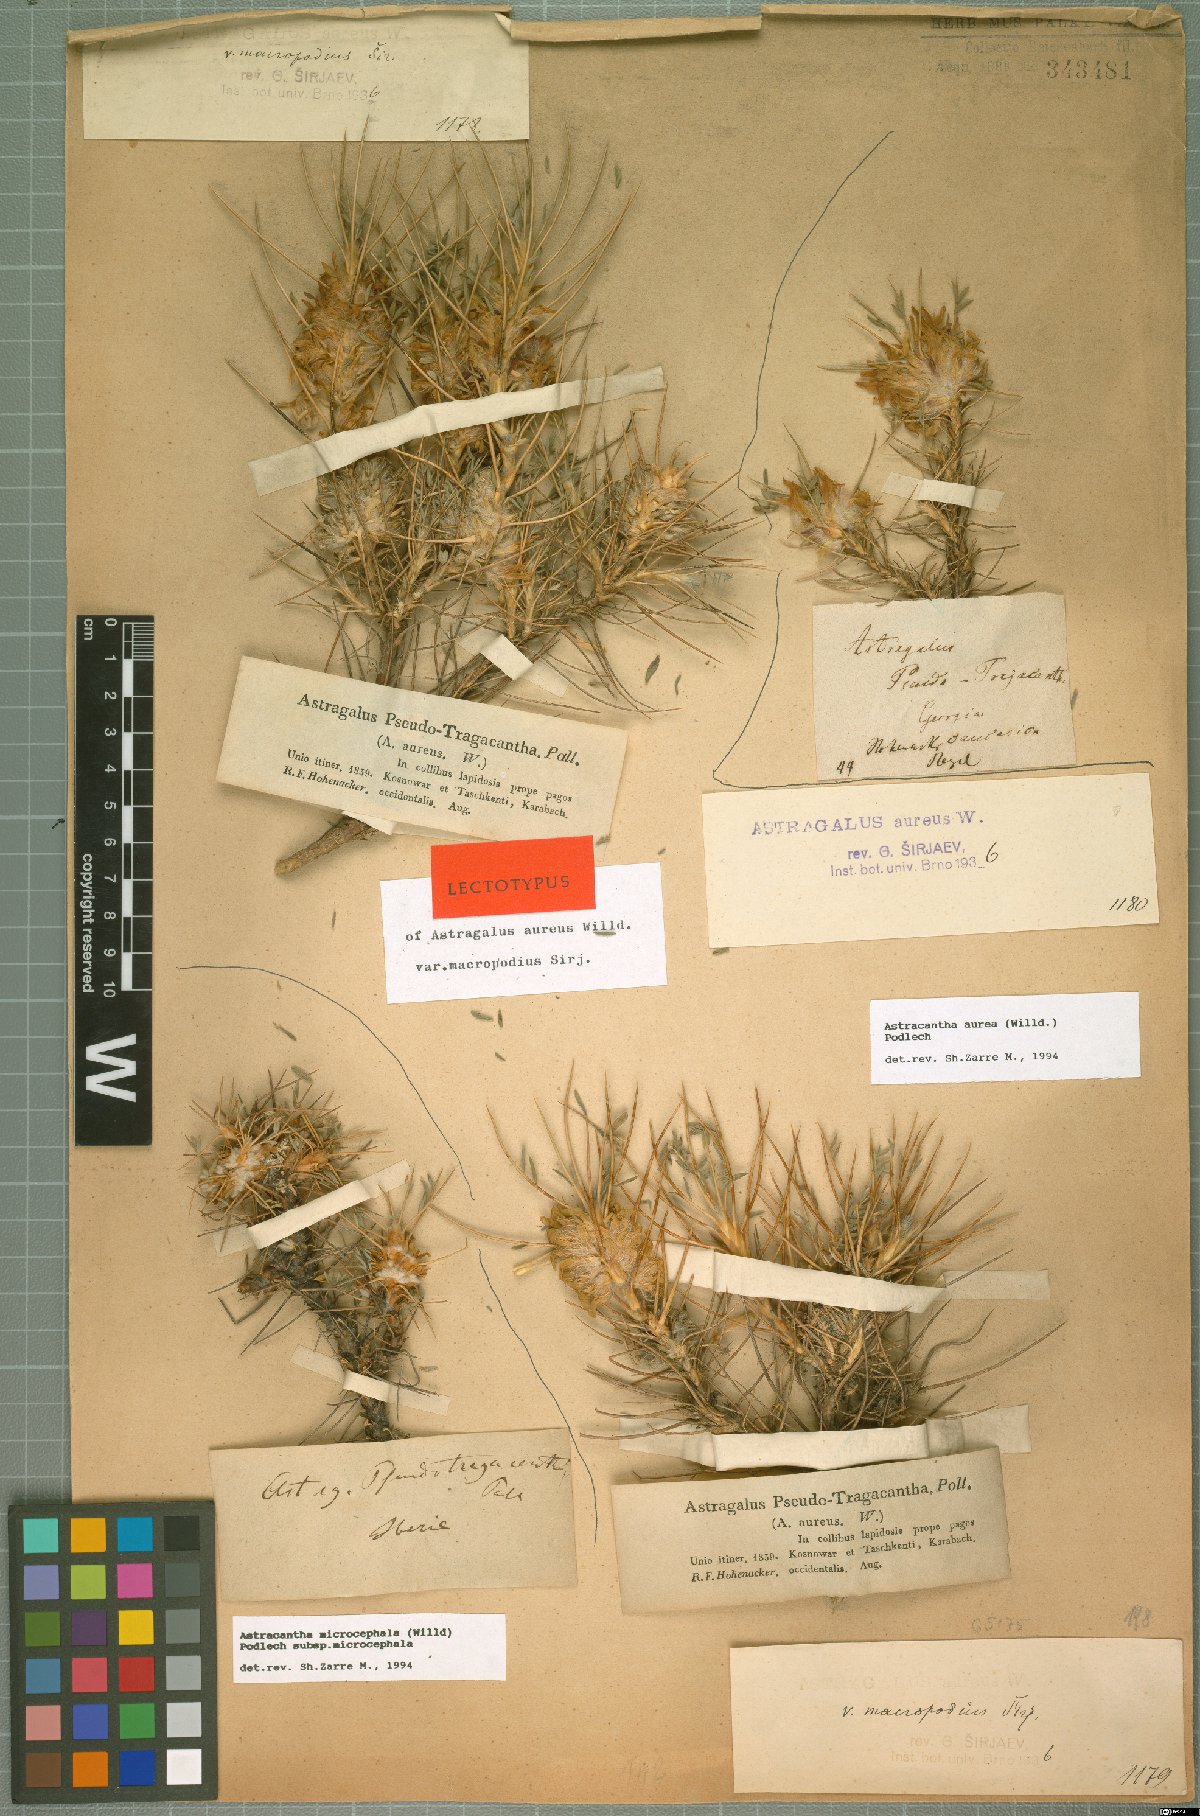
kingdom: Plantae
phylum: Tracheophyta
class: Magnoliopsida
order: Fabales
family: Fabaceae
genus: Astragalus
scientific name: Astragalus aureus
